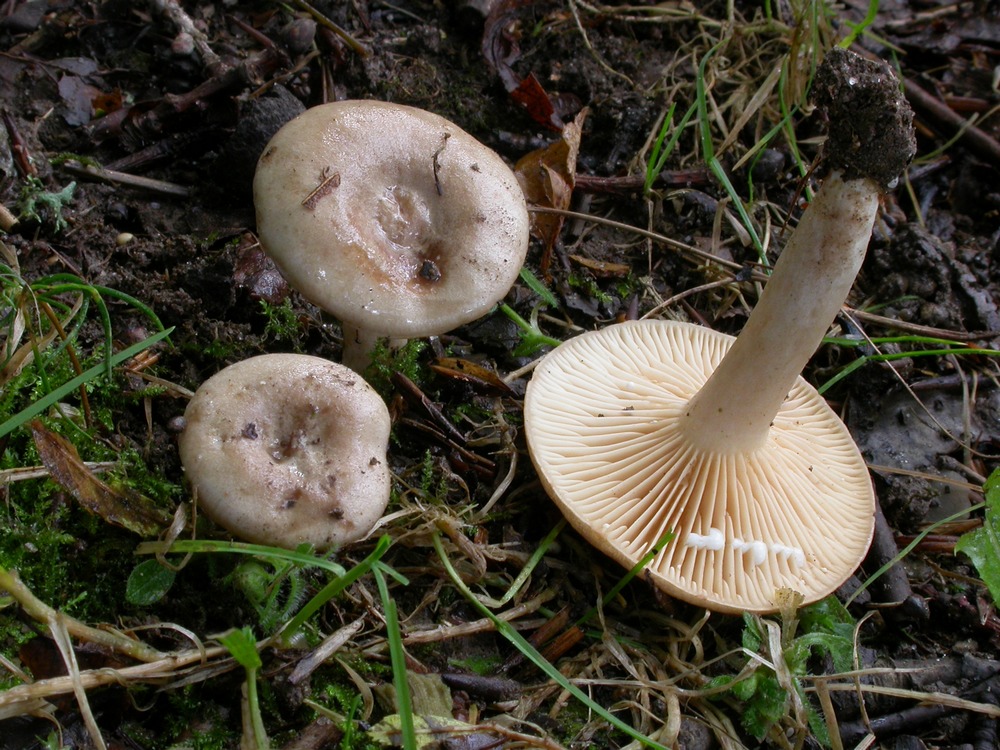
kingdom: Fungi
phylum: Basidiomycota
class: Agaricomycetes
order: Russulales
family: Russulaceae
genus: Lactarius
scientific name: Lactarius pyrogalus
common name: hassel-mælkehat
